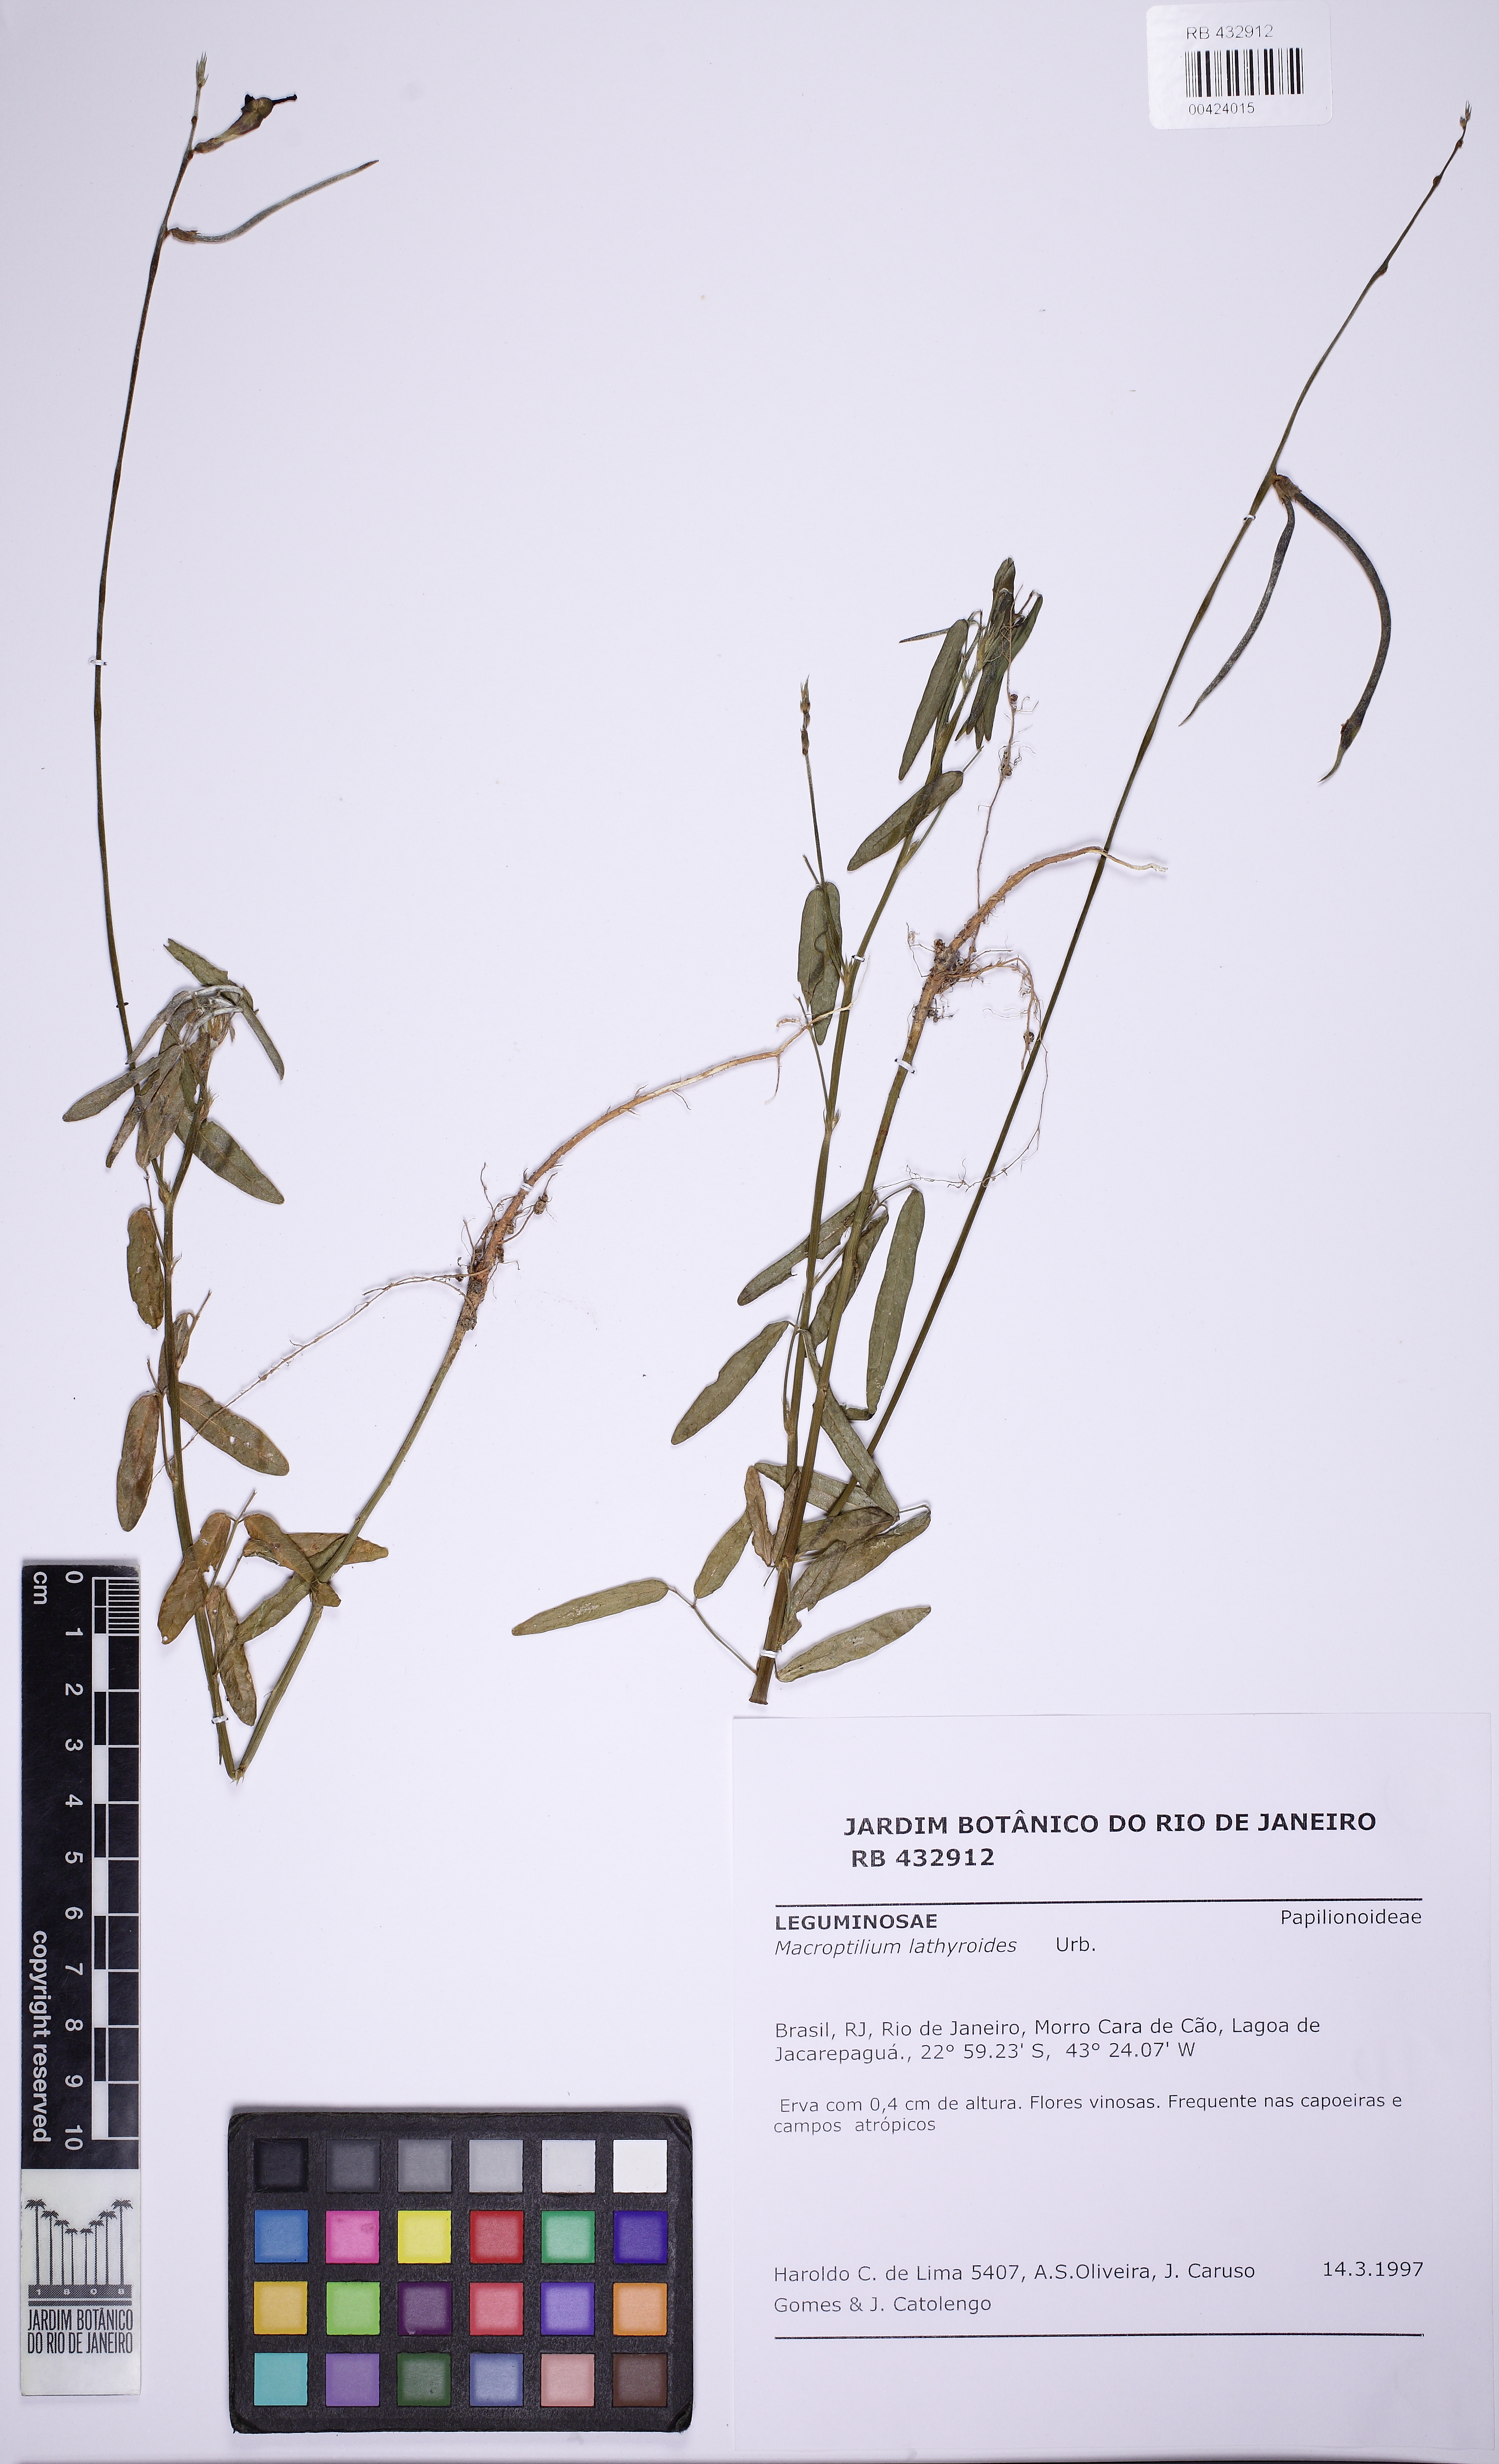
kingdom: Plantae
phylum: Tracheophyta
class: Magnoliopsida
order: Fabales
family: Fabaceae
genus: Macroptilium
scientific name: Macroptilium lathyroides
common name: Wild bushbean
